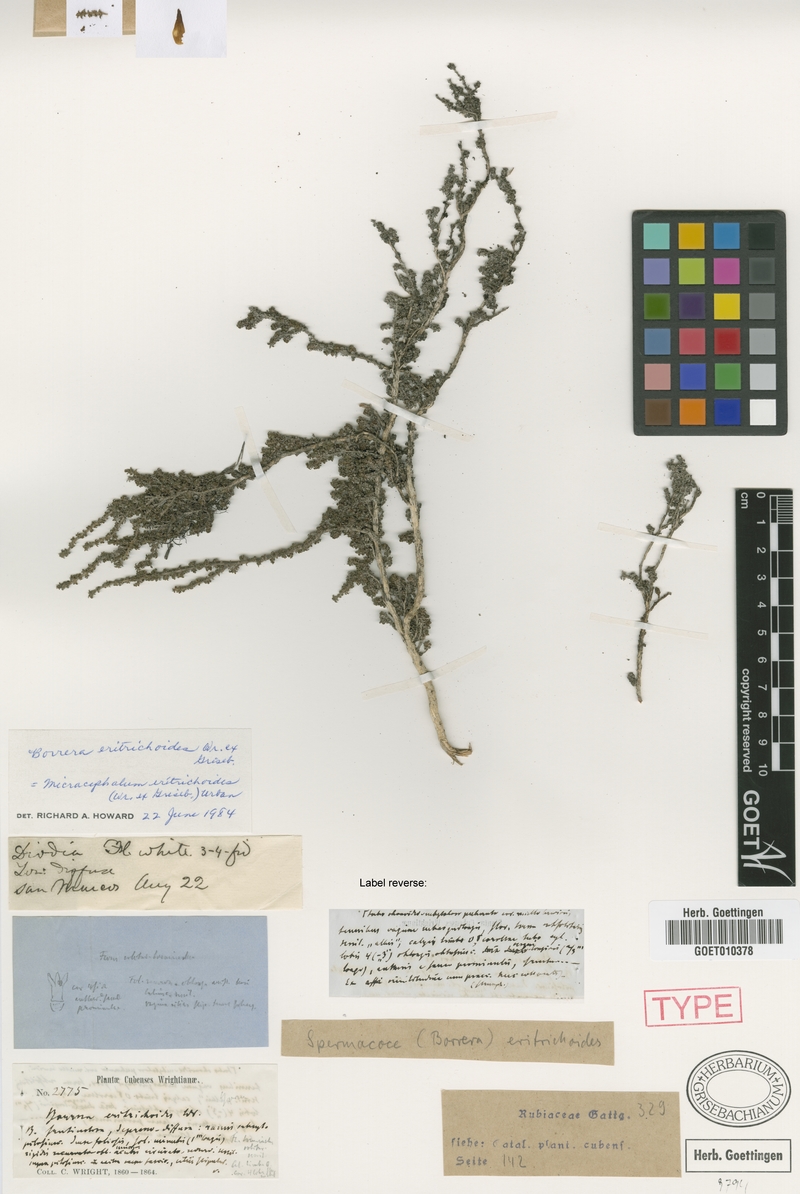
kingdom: Plantae
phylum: Tracheophyta
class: Magnoliopsida
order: Gentianales
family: Rubiaceae
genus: Micrasepalum
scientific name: Micrasepalum eritrichoides
